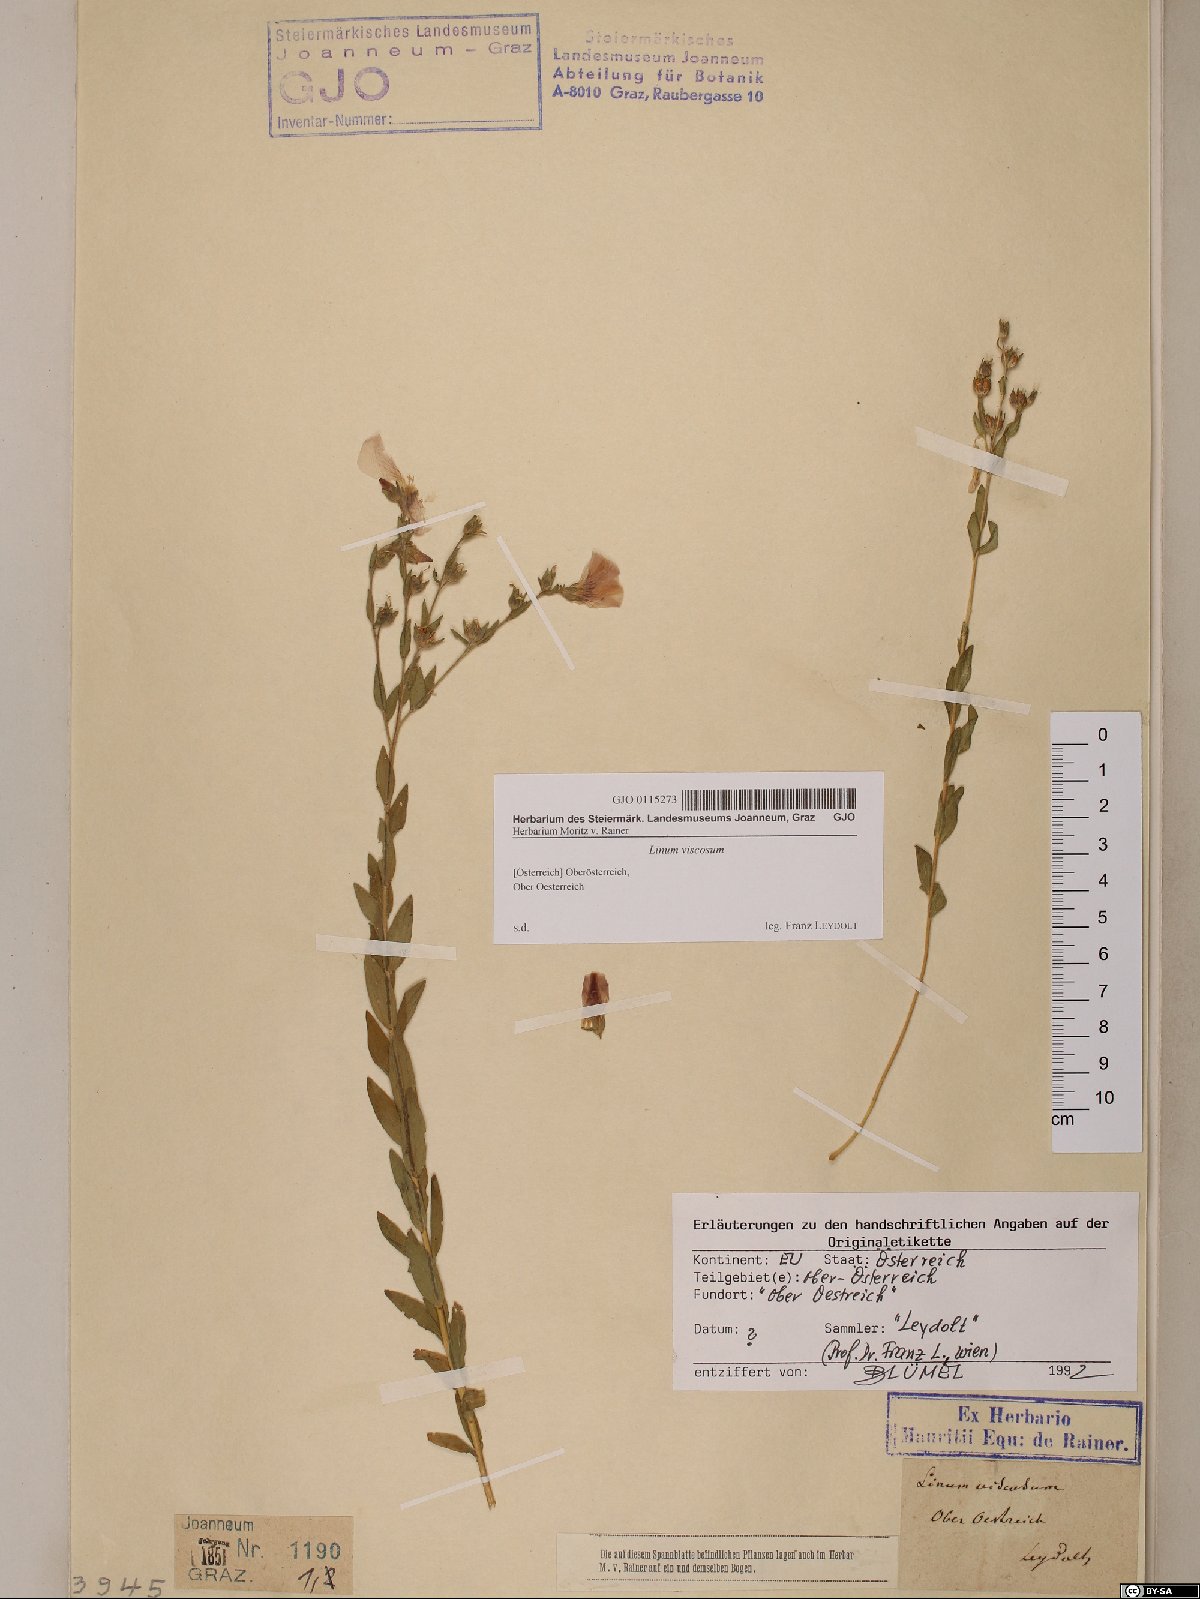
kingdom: Plantae
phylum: Tracheophyta
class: Magnoliopsida
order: Malpighiales
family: Linaceae
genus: Linum
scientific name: Linum viscosum
